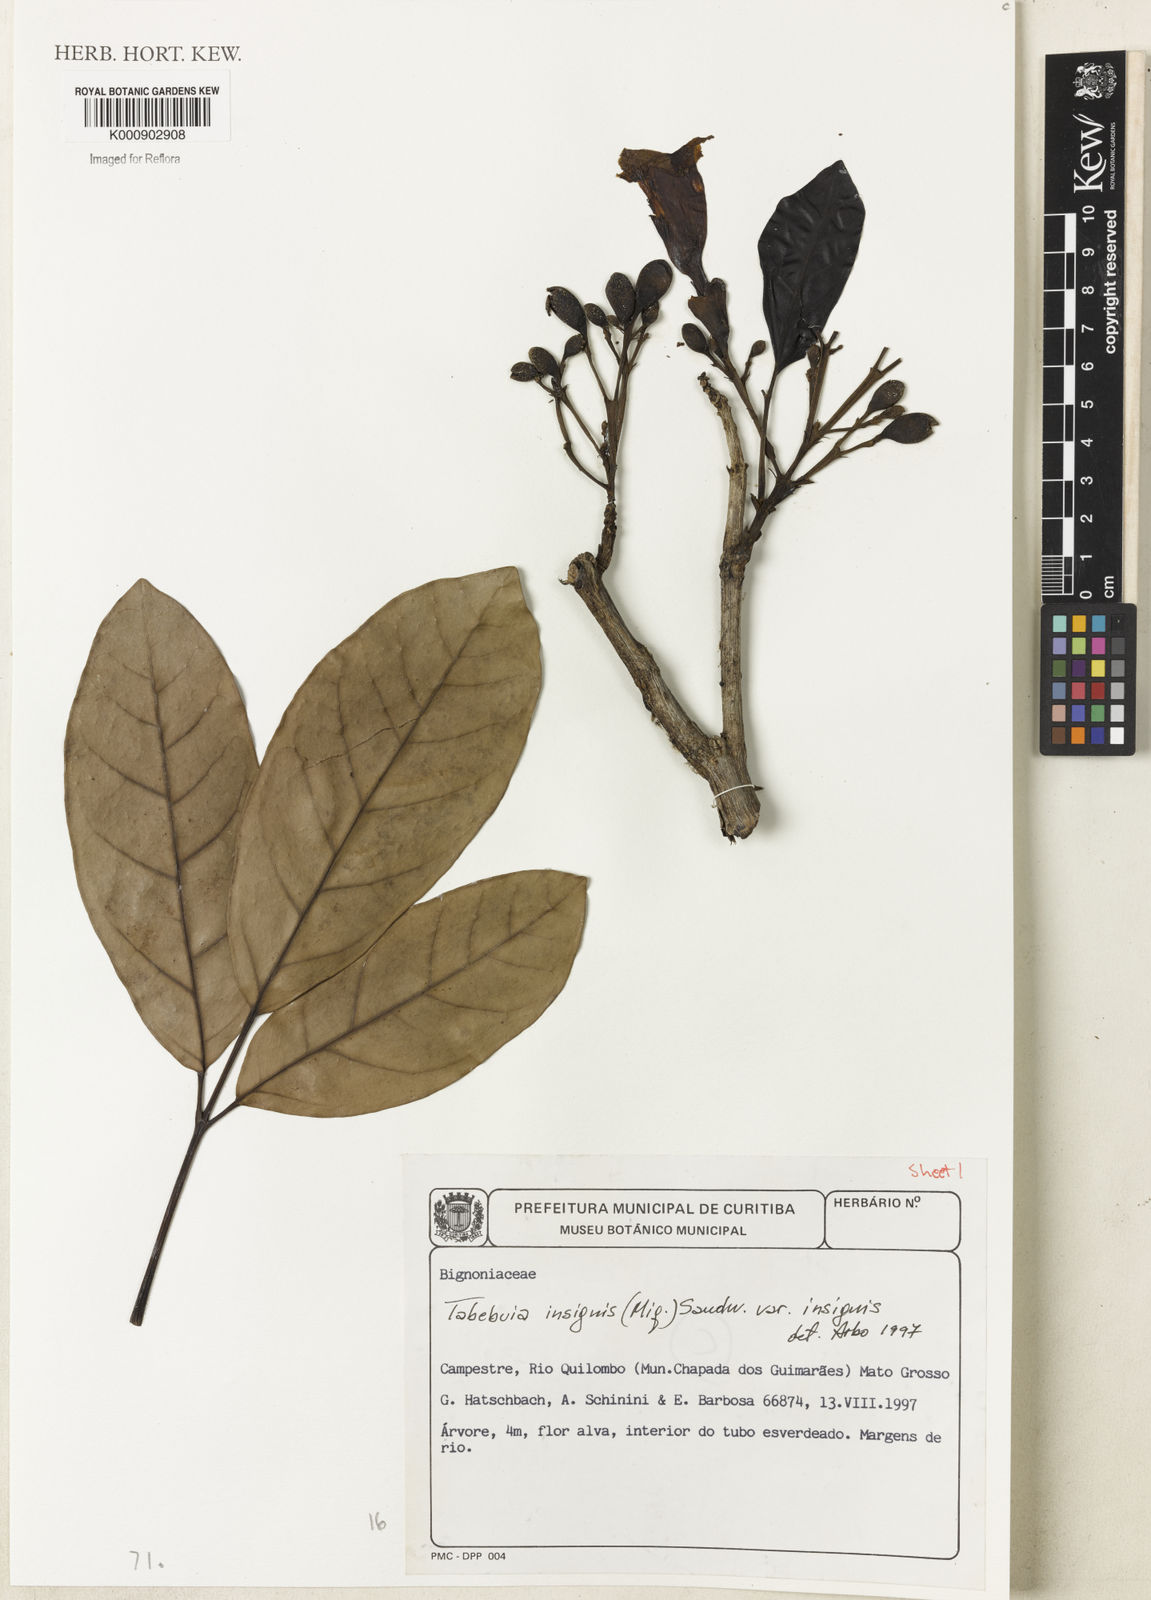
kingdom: Plantae
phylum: Tracheophyta
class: Magnoliopsida
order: Lamiales
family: Bignoniaceae
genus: Tabebuia
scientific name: Tabebuia insignis
